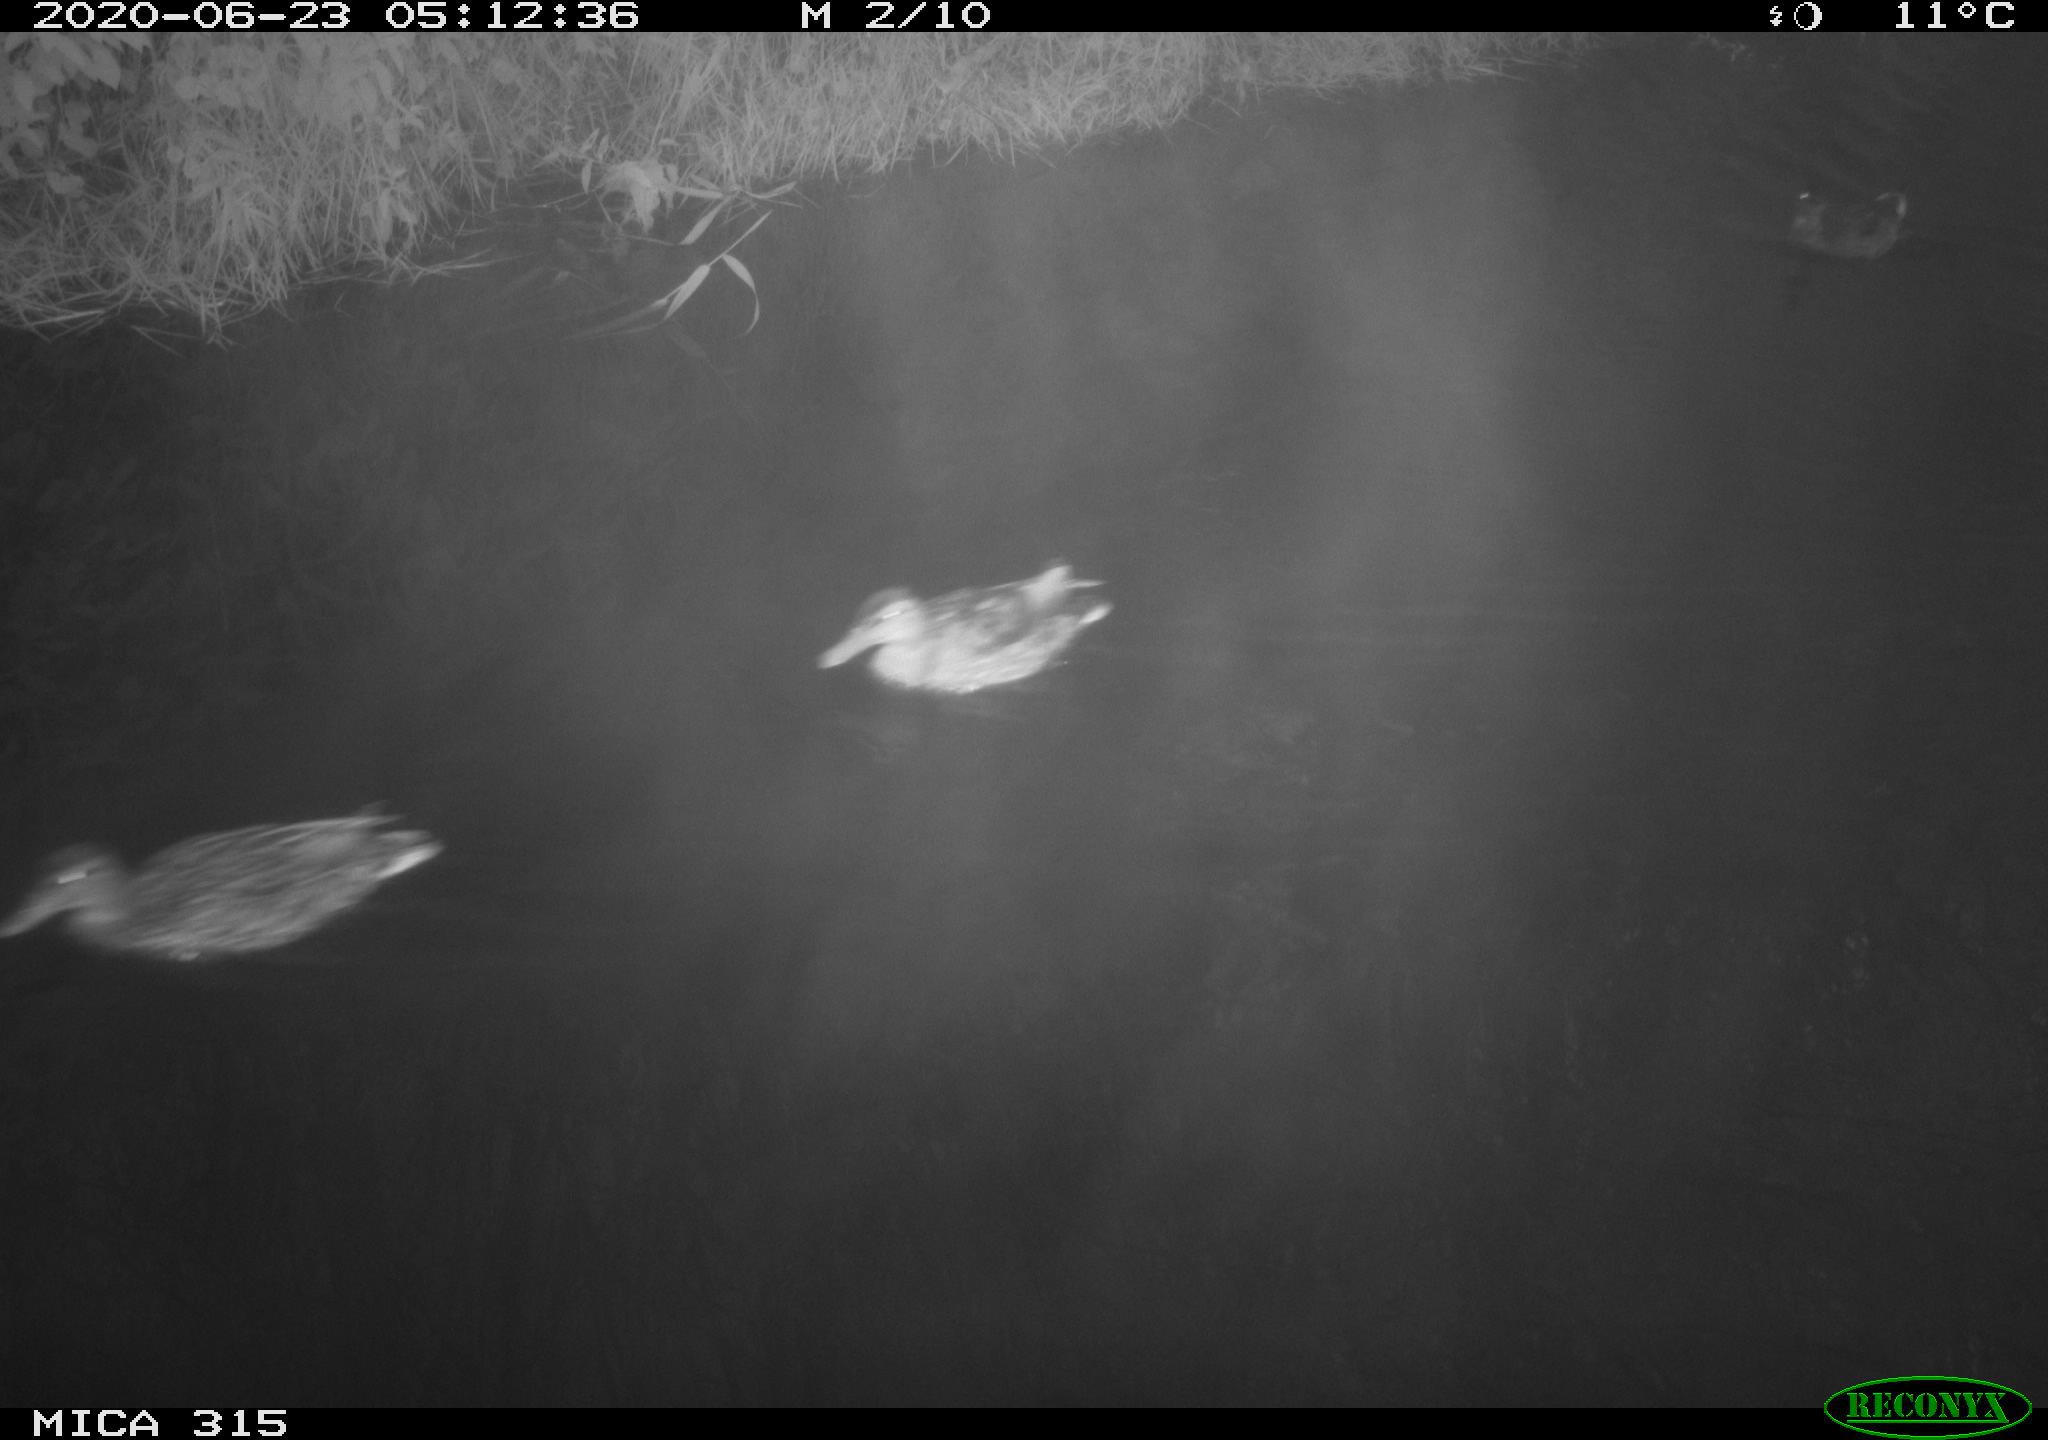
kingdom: Animalia
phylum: Chordata
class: Aves
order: Anseriformes
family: Anatidae
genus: Anas
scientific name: Anas platyrhynchos
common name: Mallard
